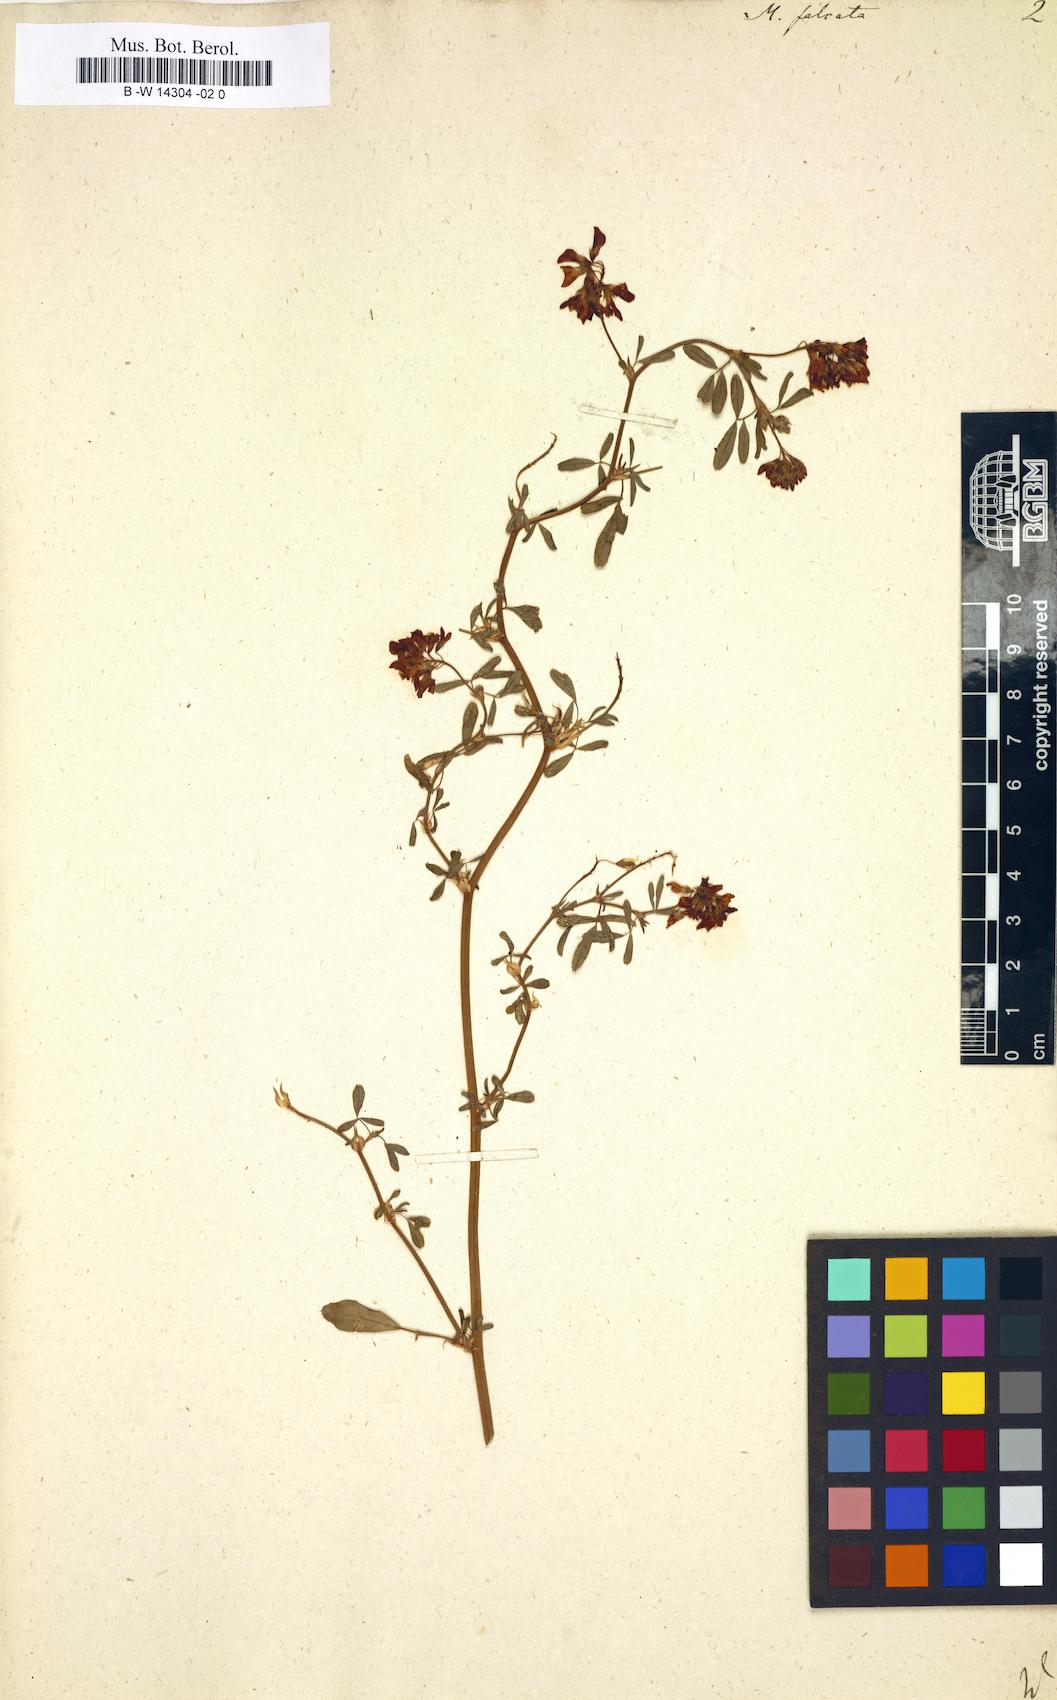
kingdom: Plantae
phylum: Tracheophyta
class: Magnoliopsida
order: Fabales
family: Fabaceae
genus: Medicago
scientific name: Medicago falcata
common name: Sickle medick
